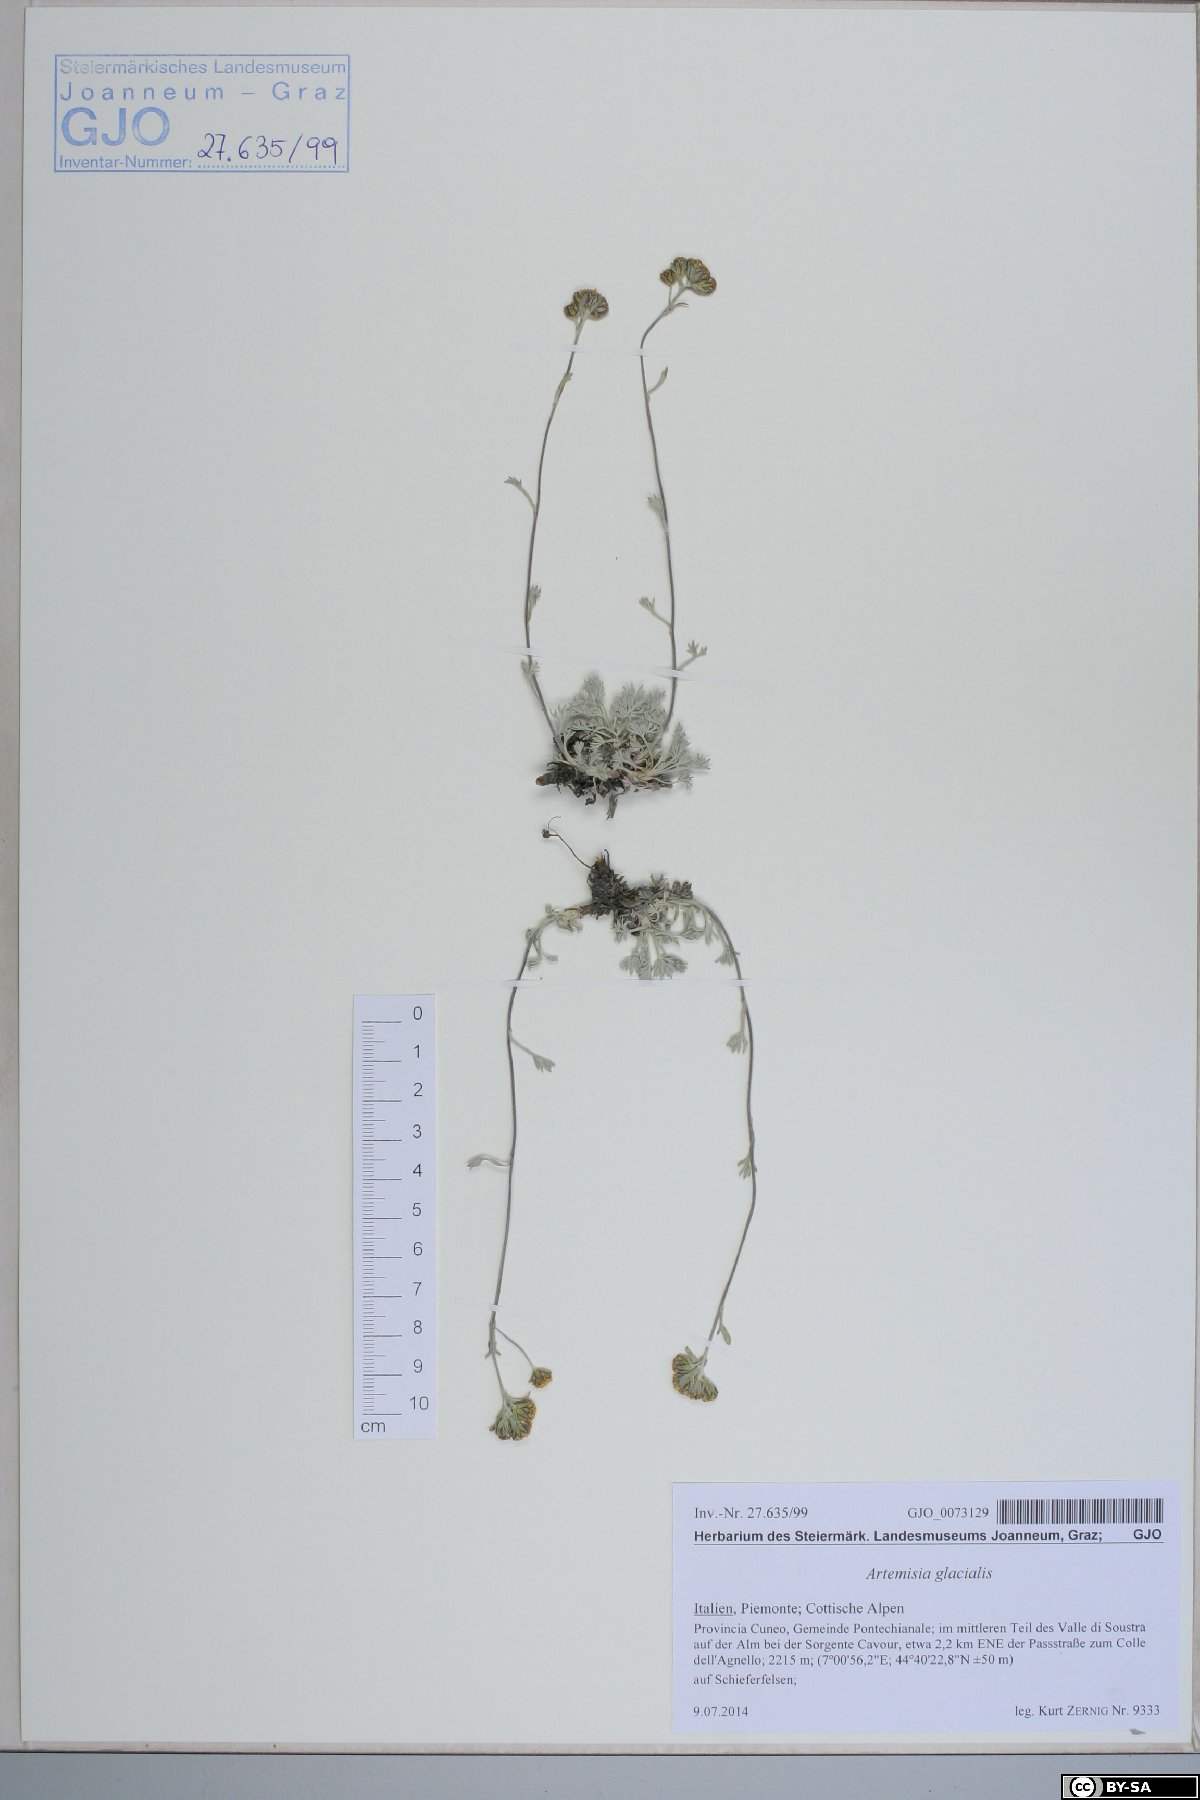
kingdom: Plantae
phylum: Tracheophyta
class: Magnoliopsida
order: Asterales
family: Asteraceae
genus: Artemisia
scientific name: Artemisia glacialis
